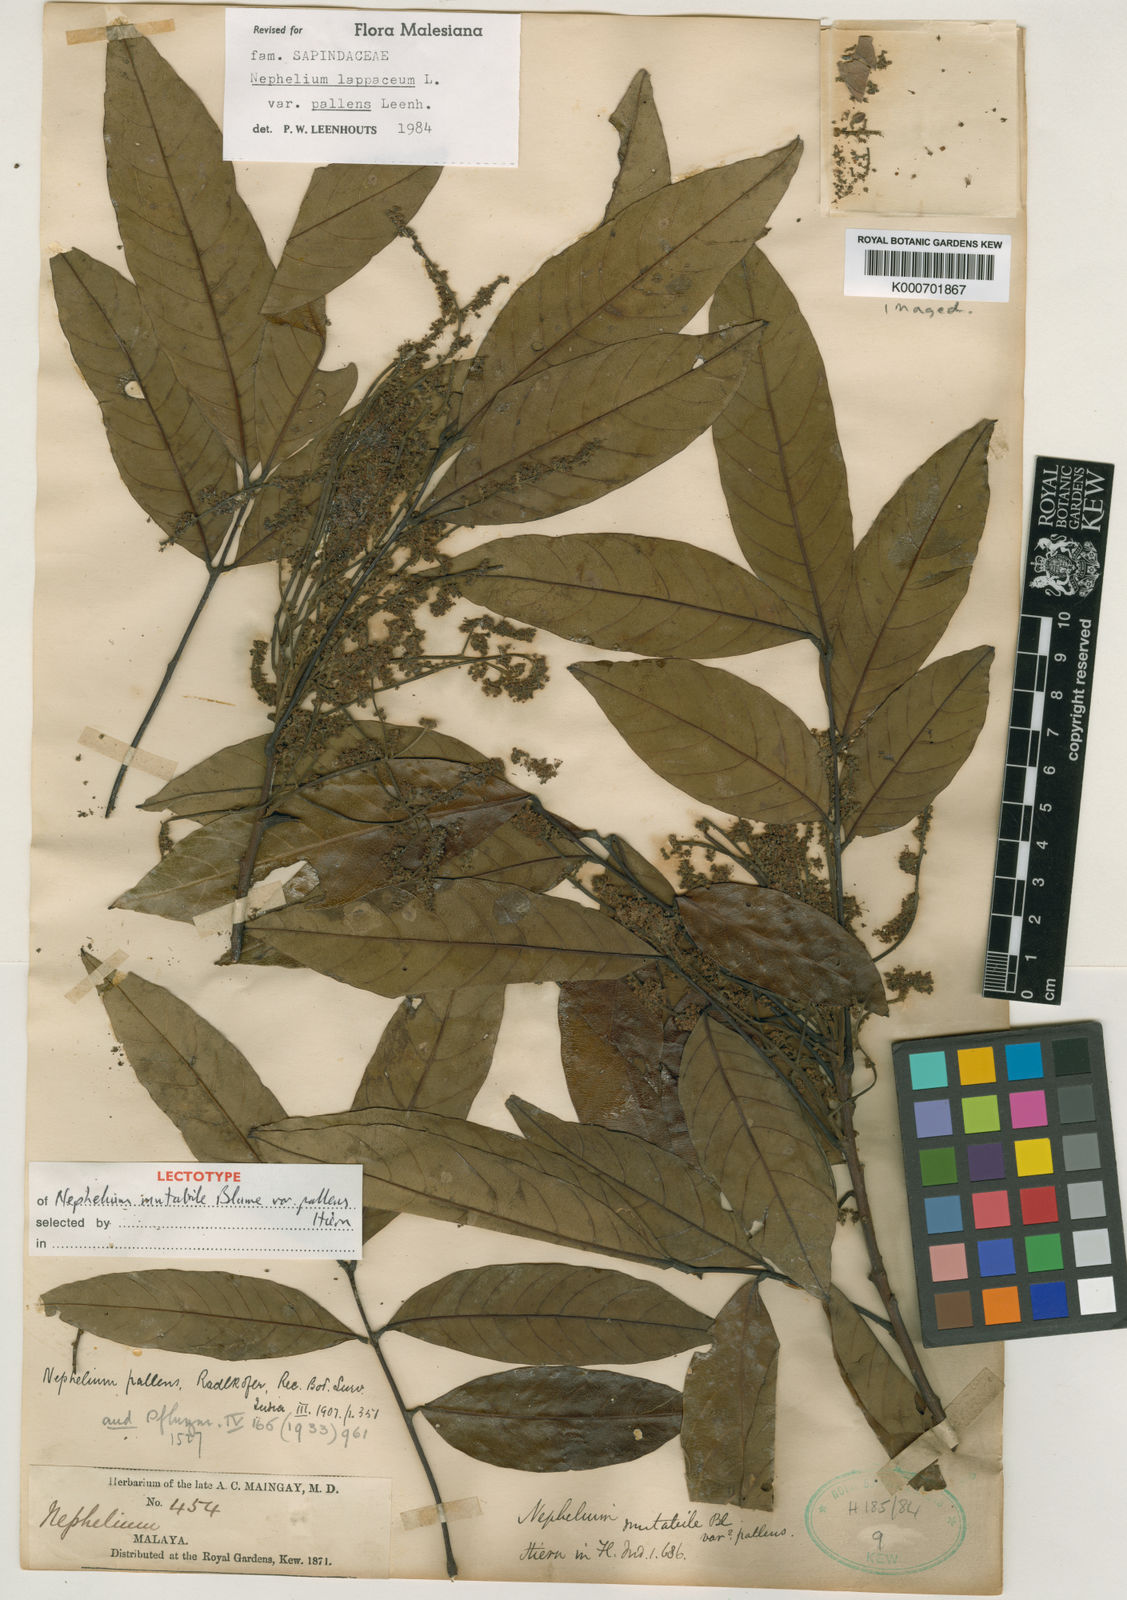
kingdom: Plantae
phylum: Tracheophyta
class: Magnoliopsida
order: Sapindales
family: Sapindaceae
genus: Nephelium
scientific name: Nephelium lappaceum
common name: Rambutan
